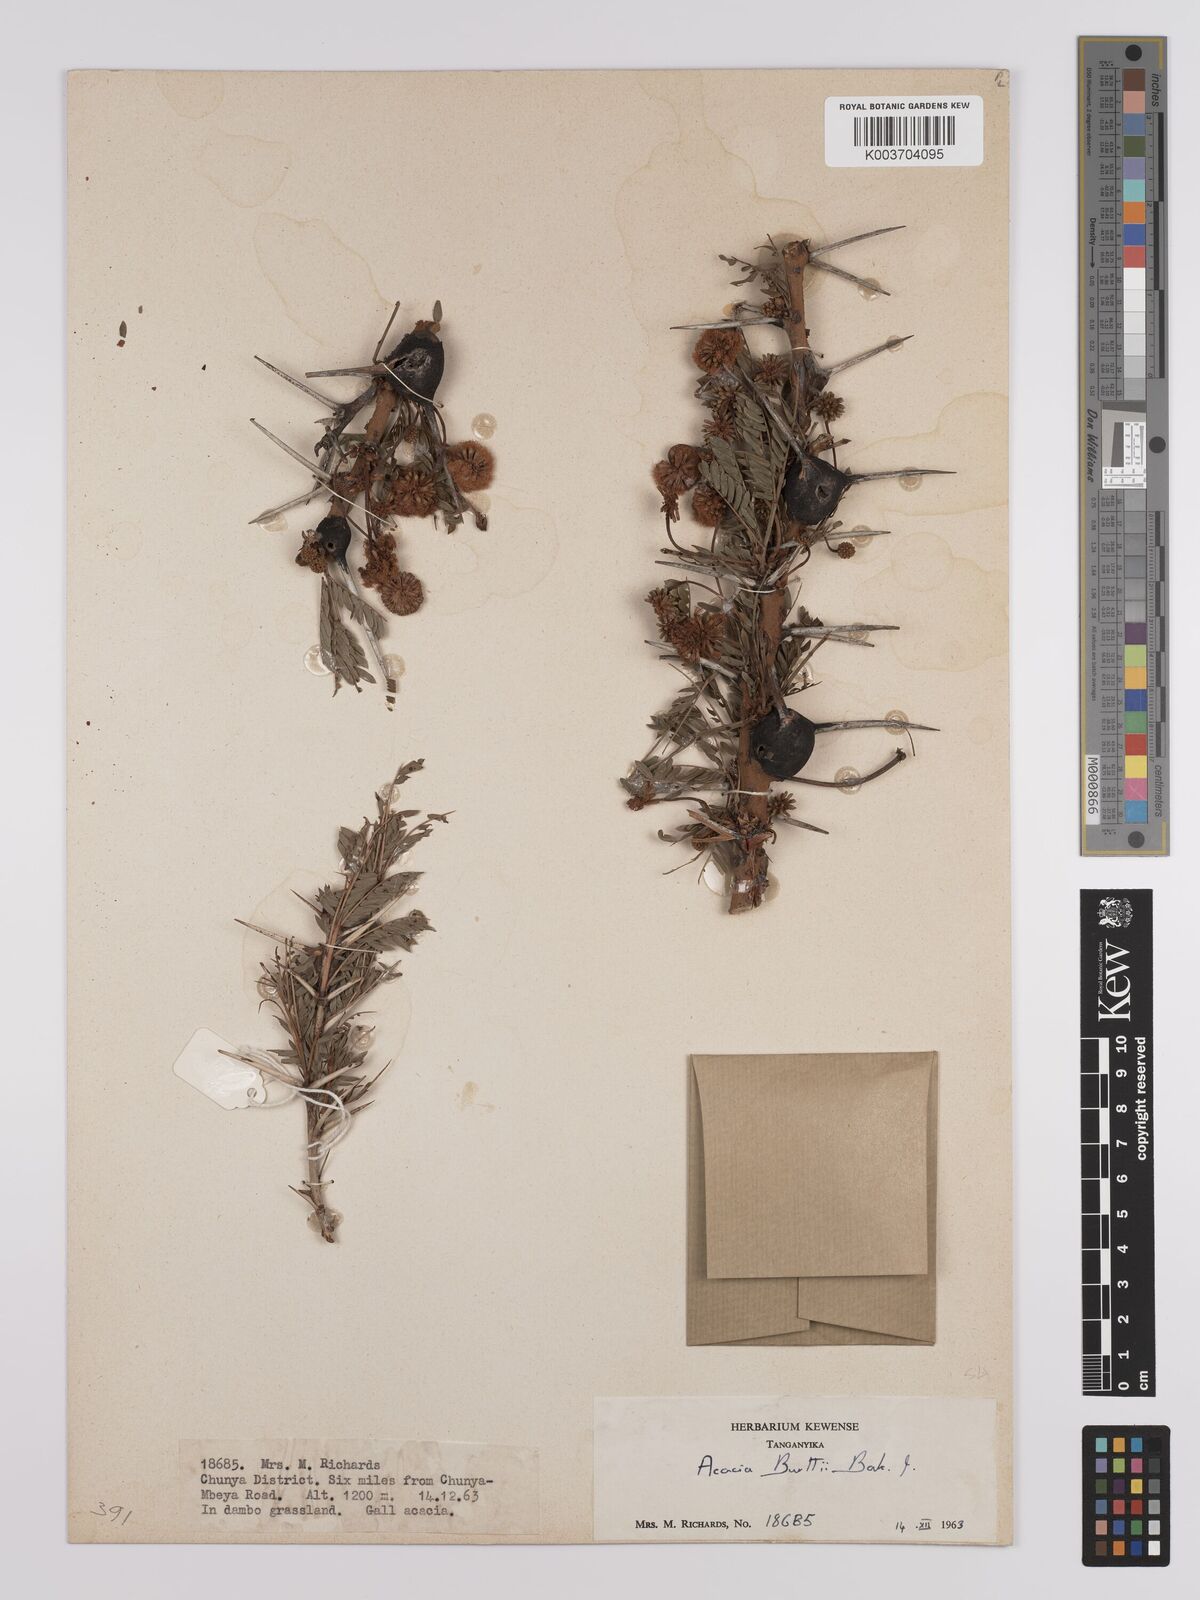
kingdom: Plantae
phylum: Tracheophyta
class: Magnoliopsida
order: Fabales
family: Fabaceae
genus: Vachellia
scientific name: Vachellia burttii
